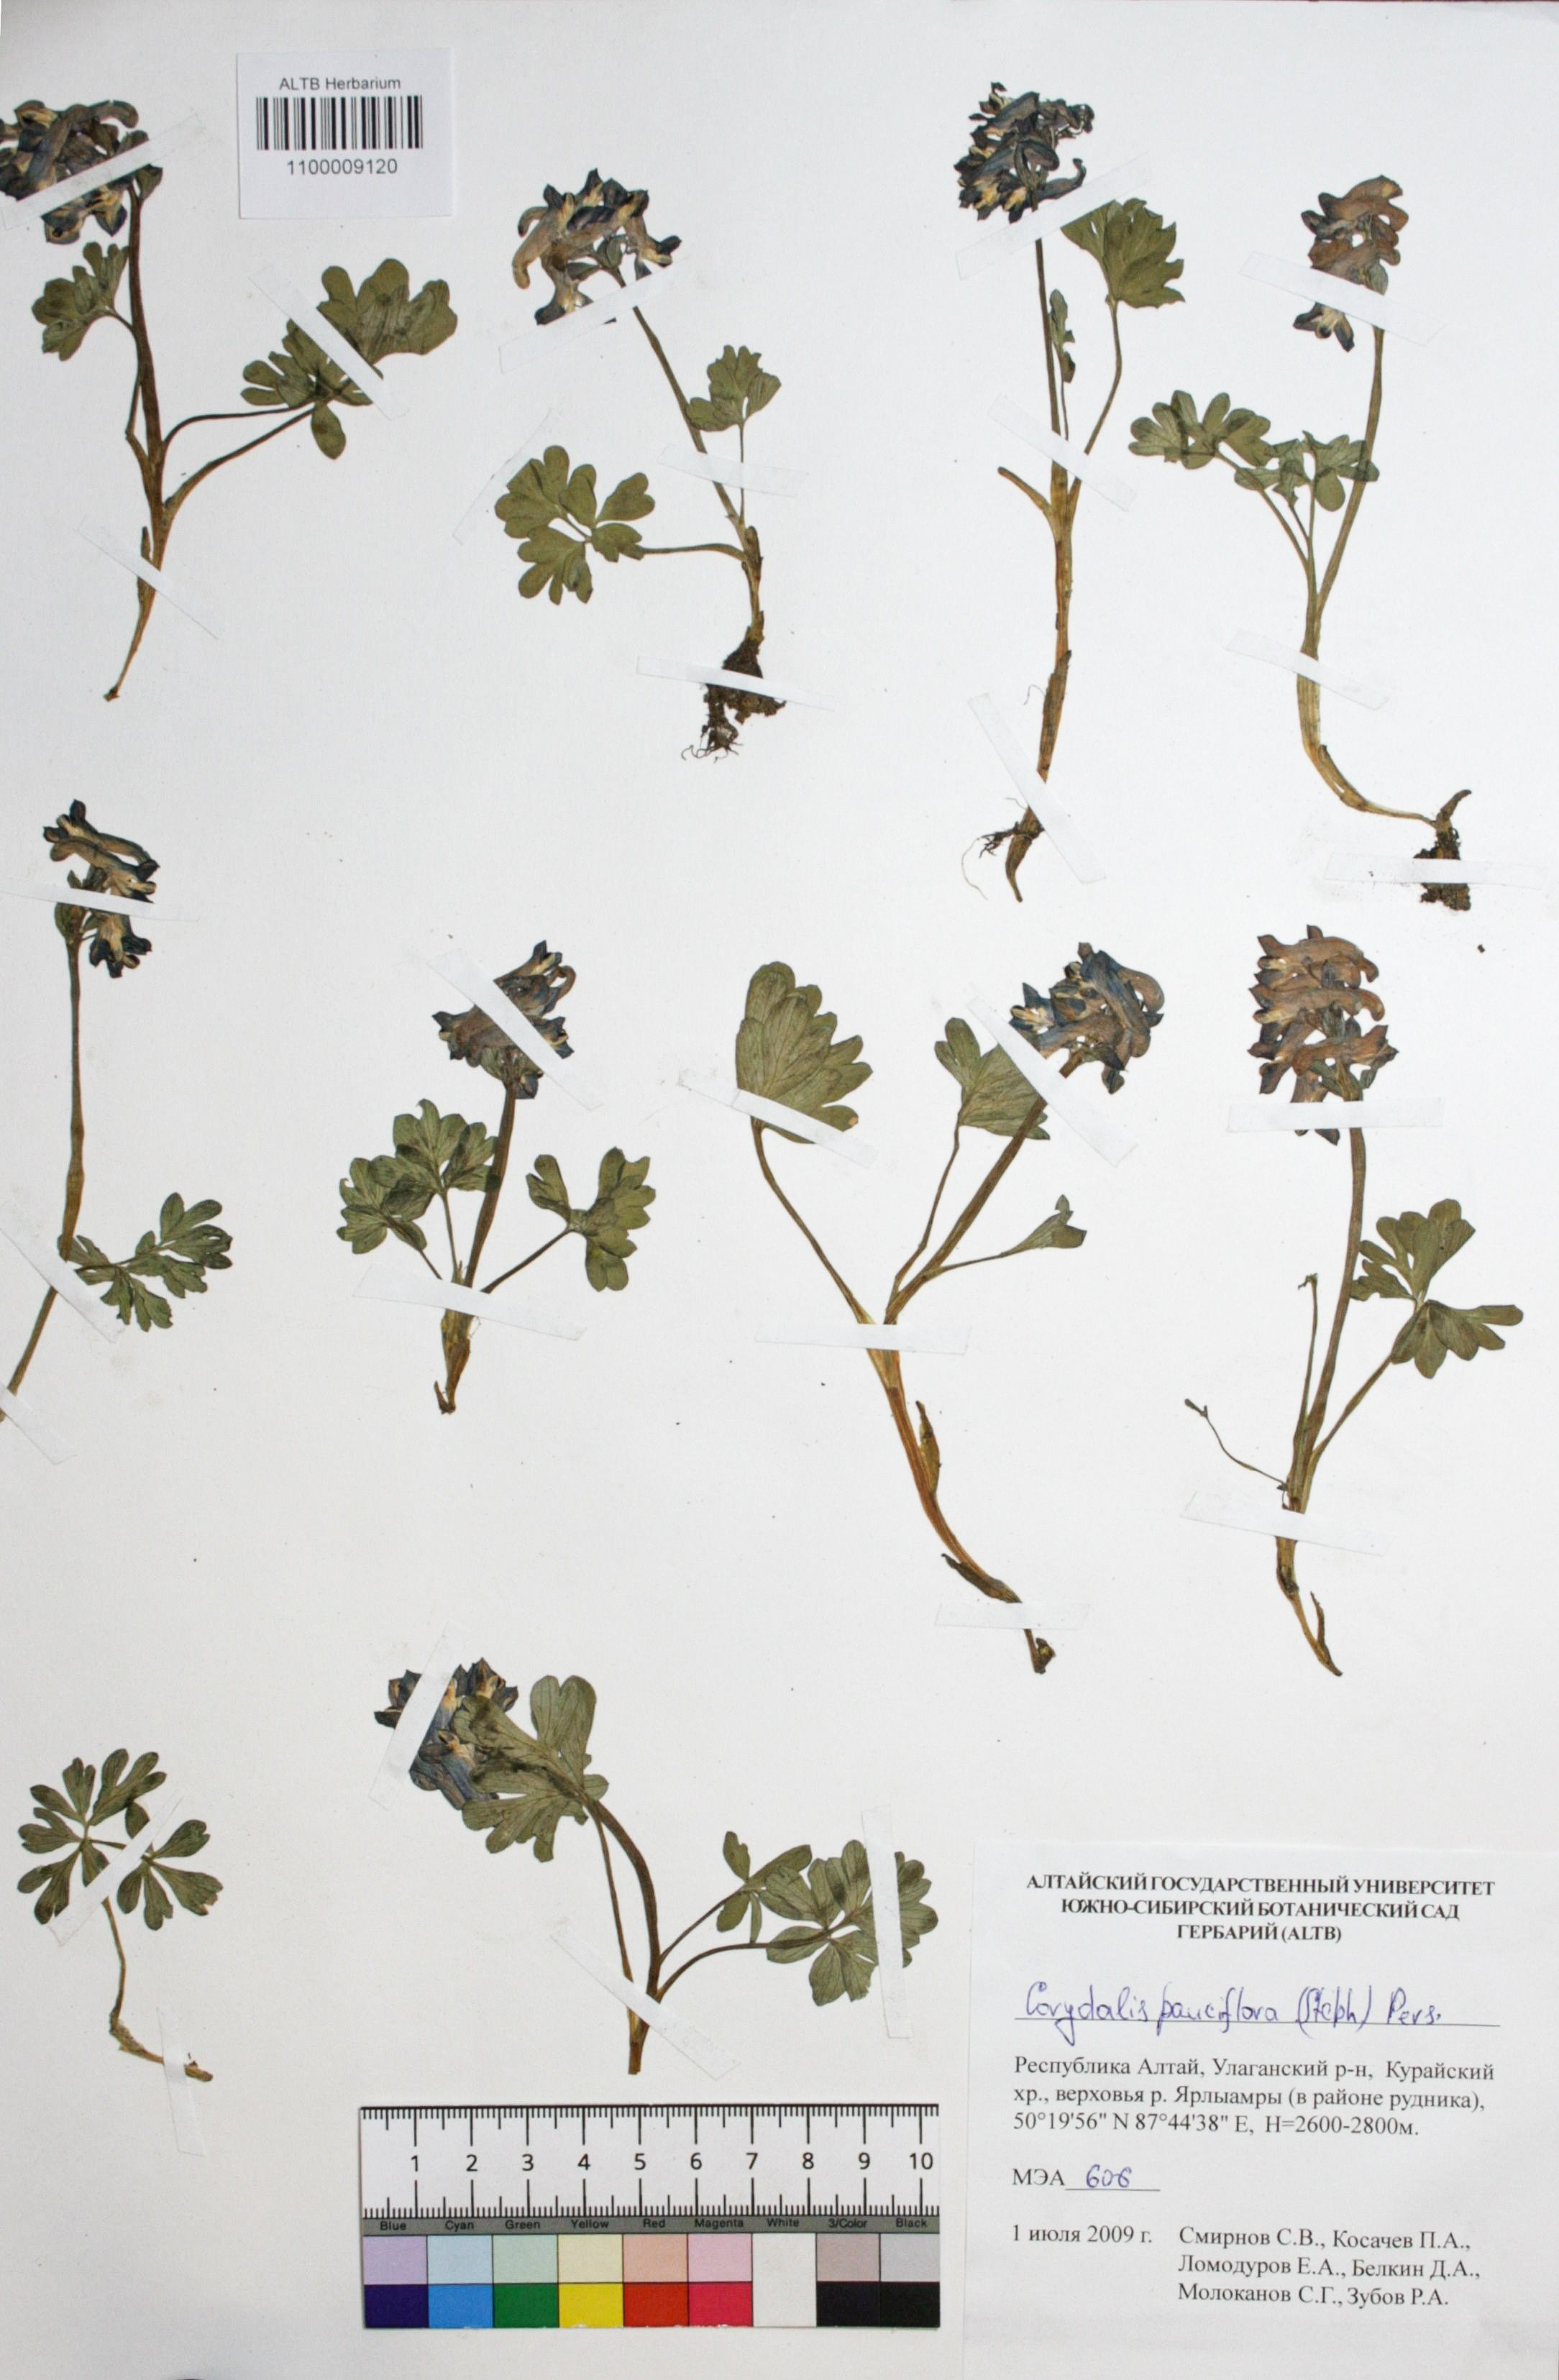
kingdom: Plantae
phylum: Tracheophyta
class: Magnoliopsida
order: Ranunculales
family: Papaveraceae
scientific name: Papaveraceae
